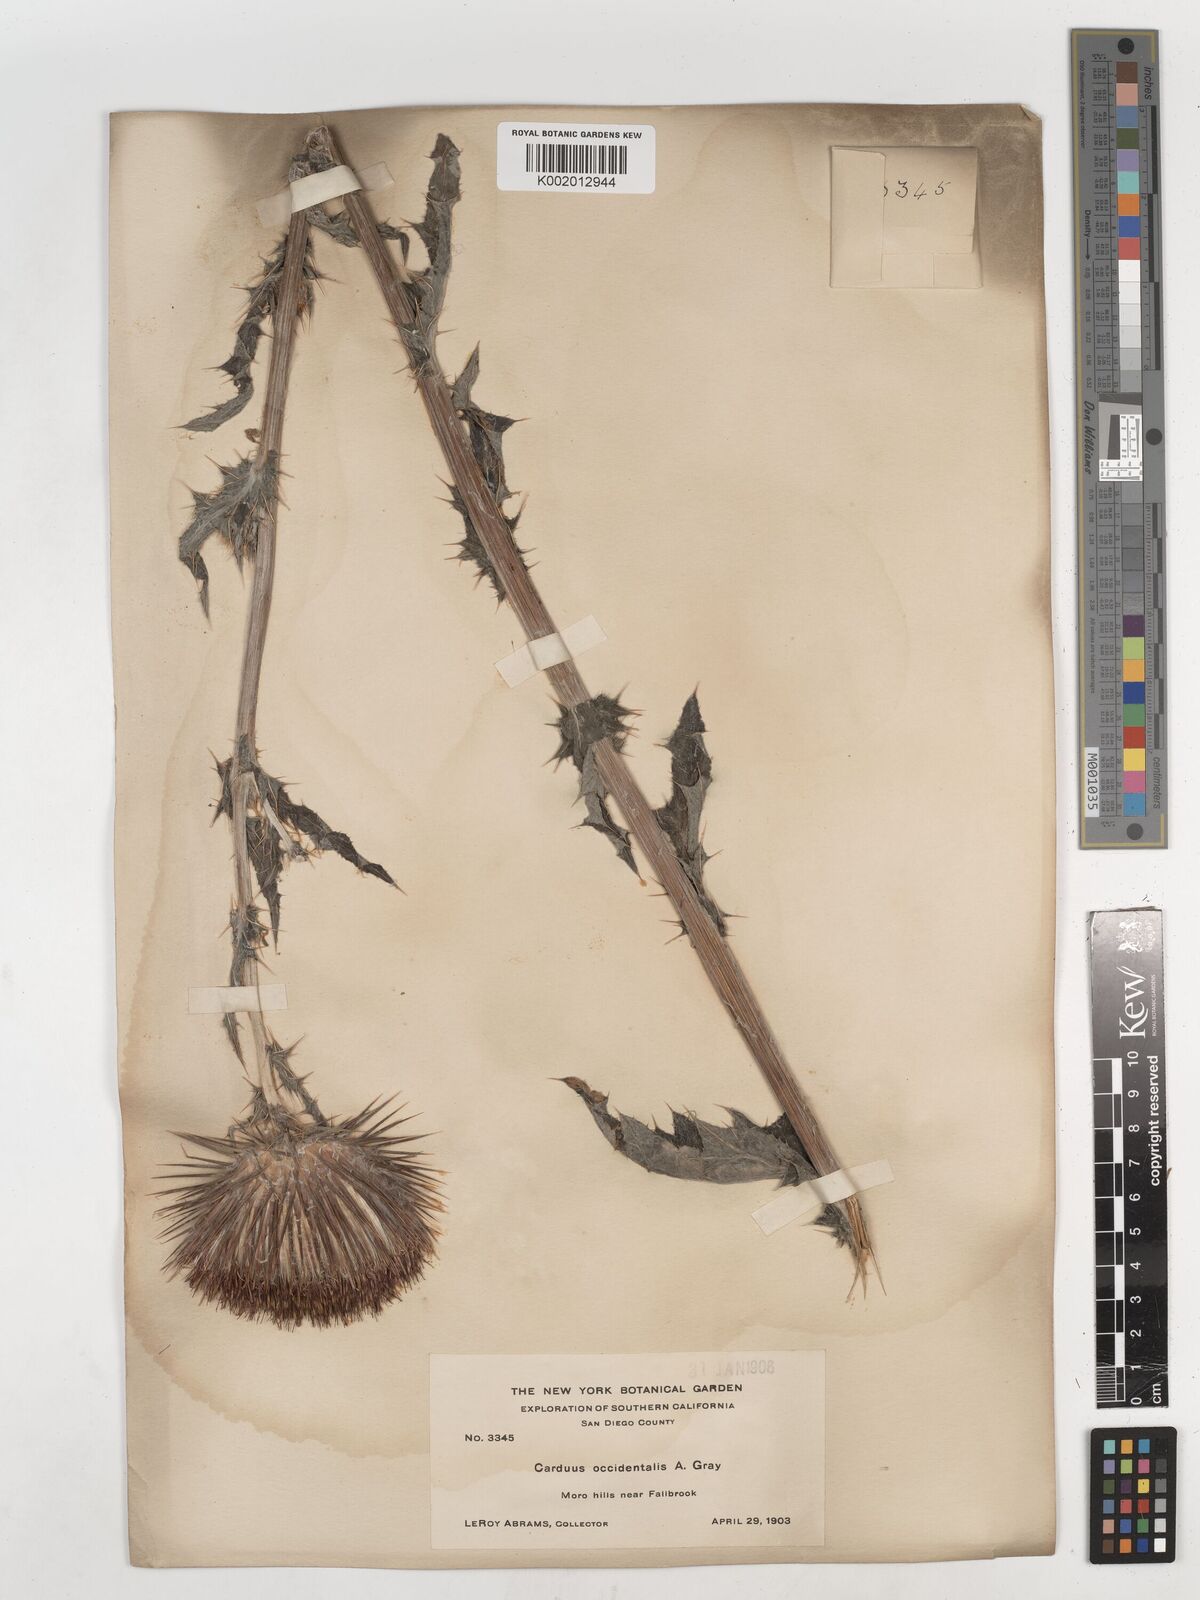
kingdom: Plantae
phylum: Tracheophyta
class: Magnoliopsida
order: Asterales
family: Asteraceae
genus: Cirsium
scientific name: Cirsium occidentale
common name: Western thistle
